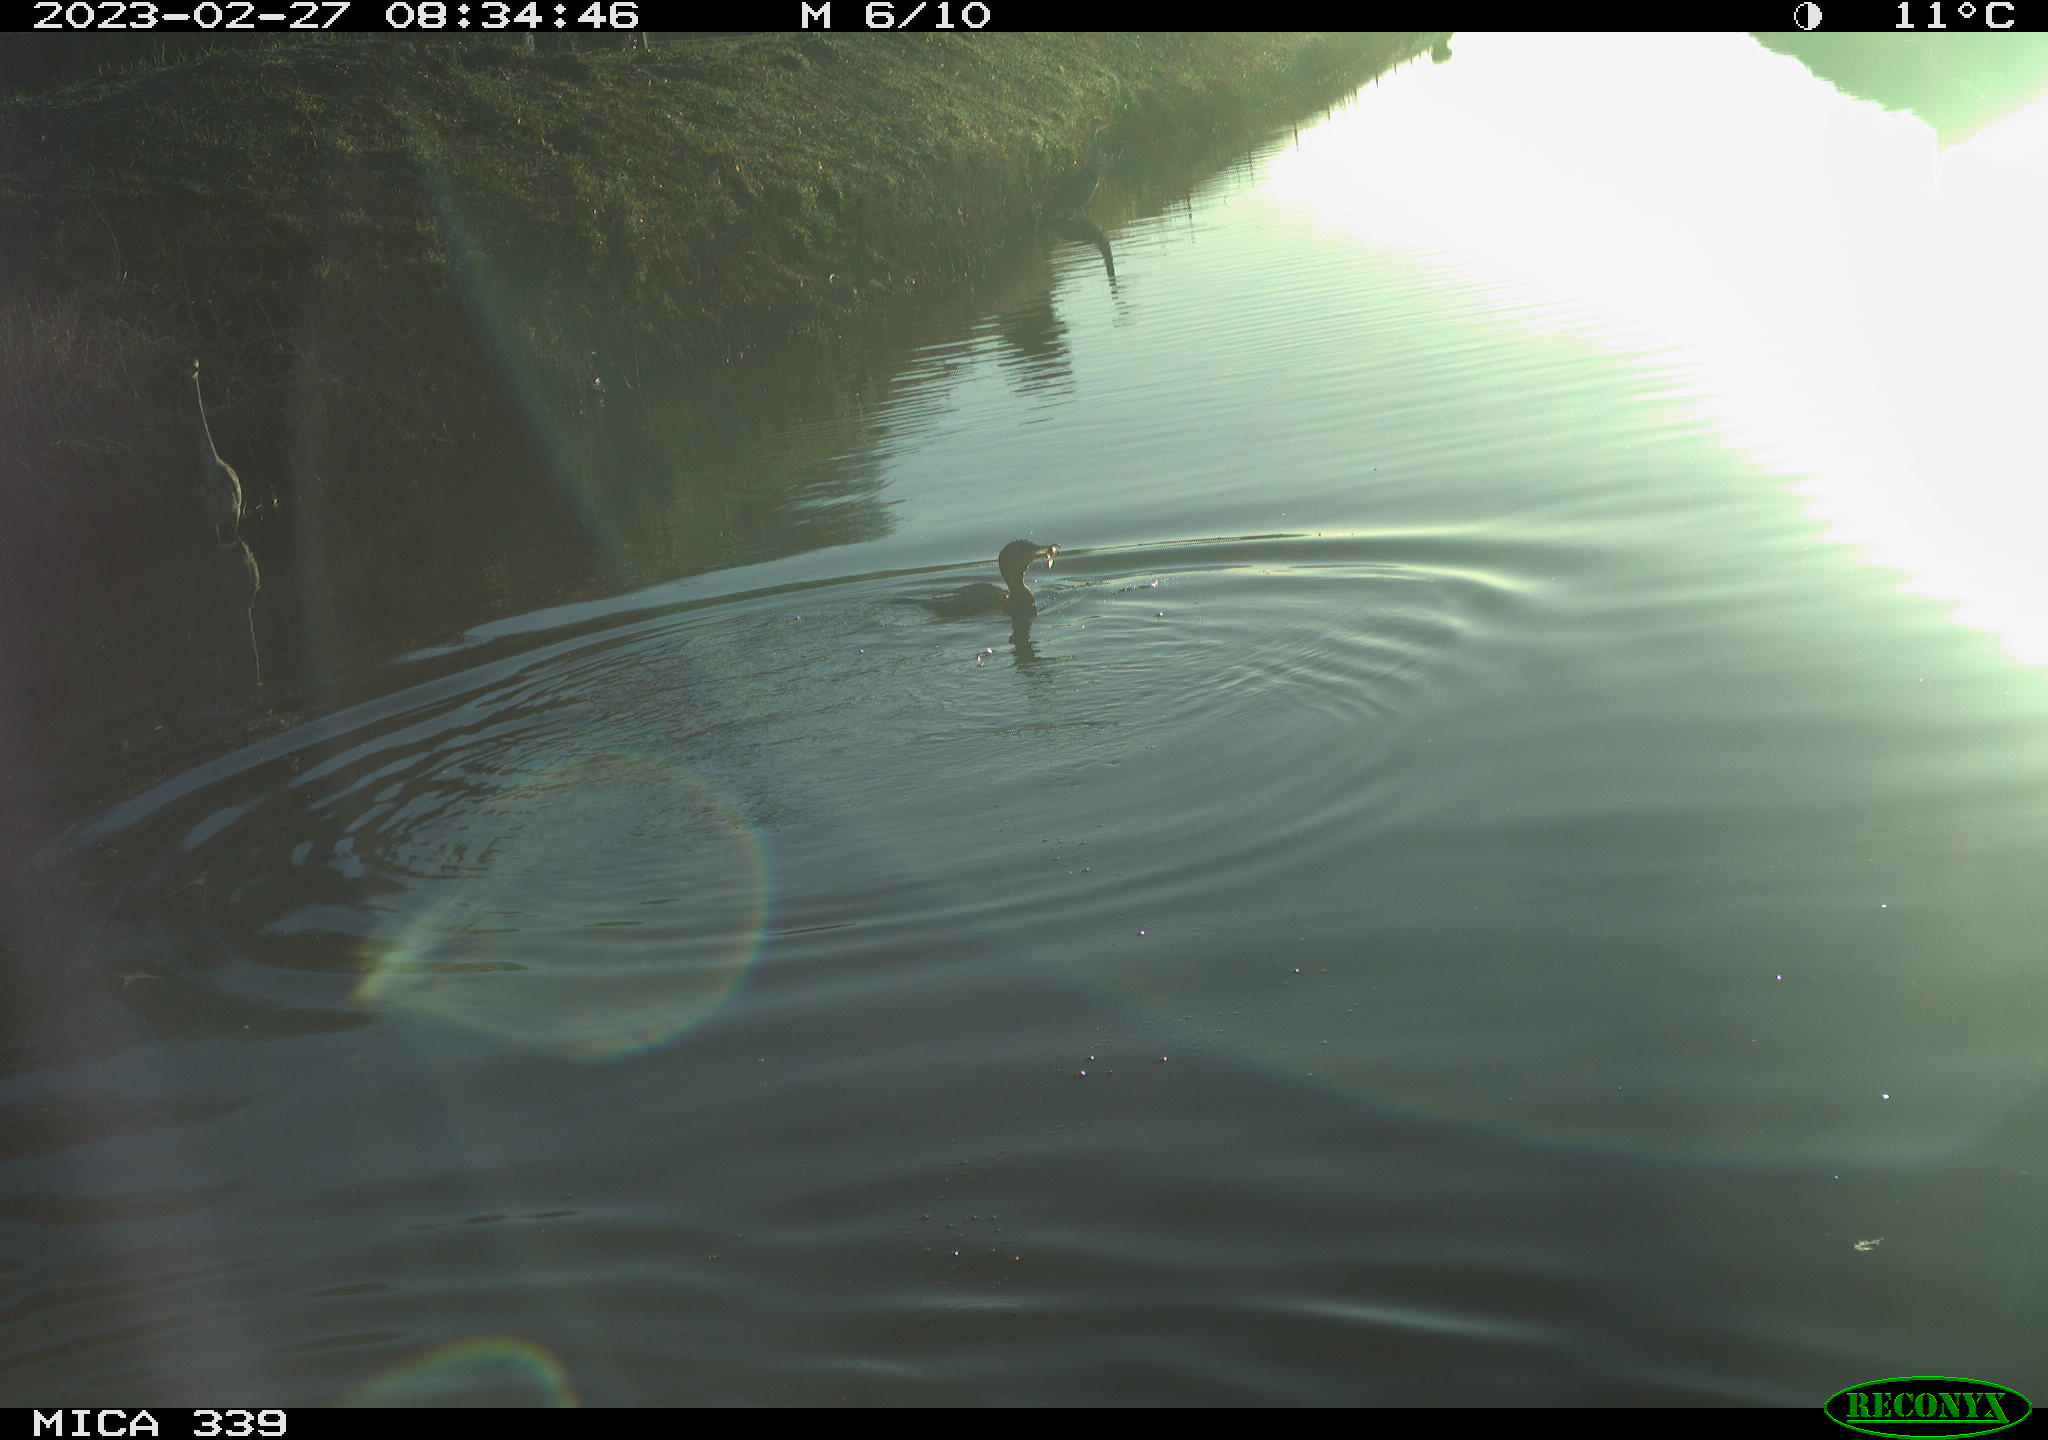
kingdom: Animalia
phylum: Chordata
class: Aves
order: Pelecaniformes
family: Ardeidae
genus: Ardea
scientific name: Ardea cinerea
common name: Grey heron
